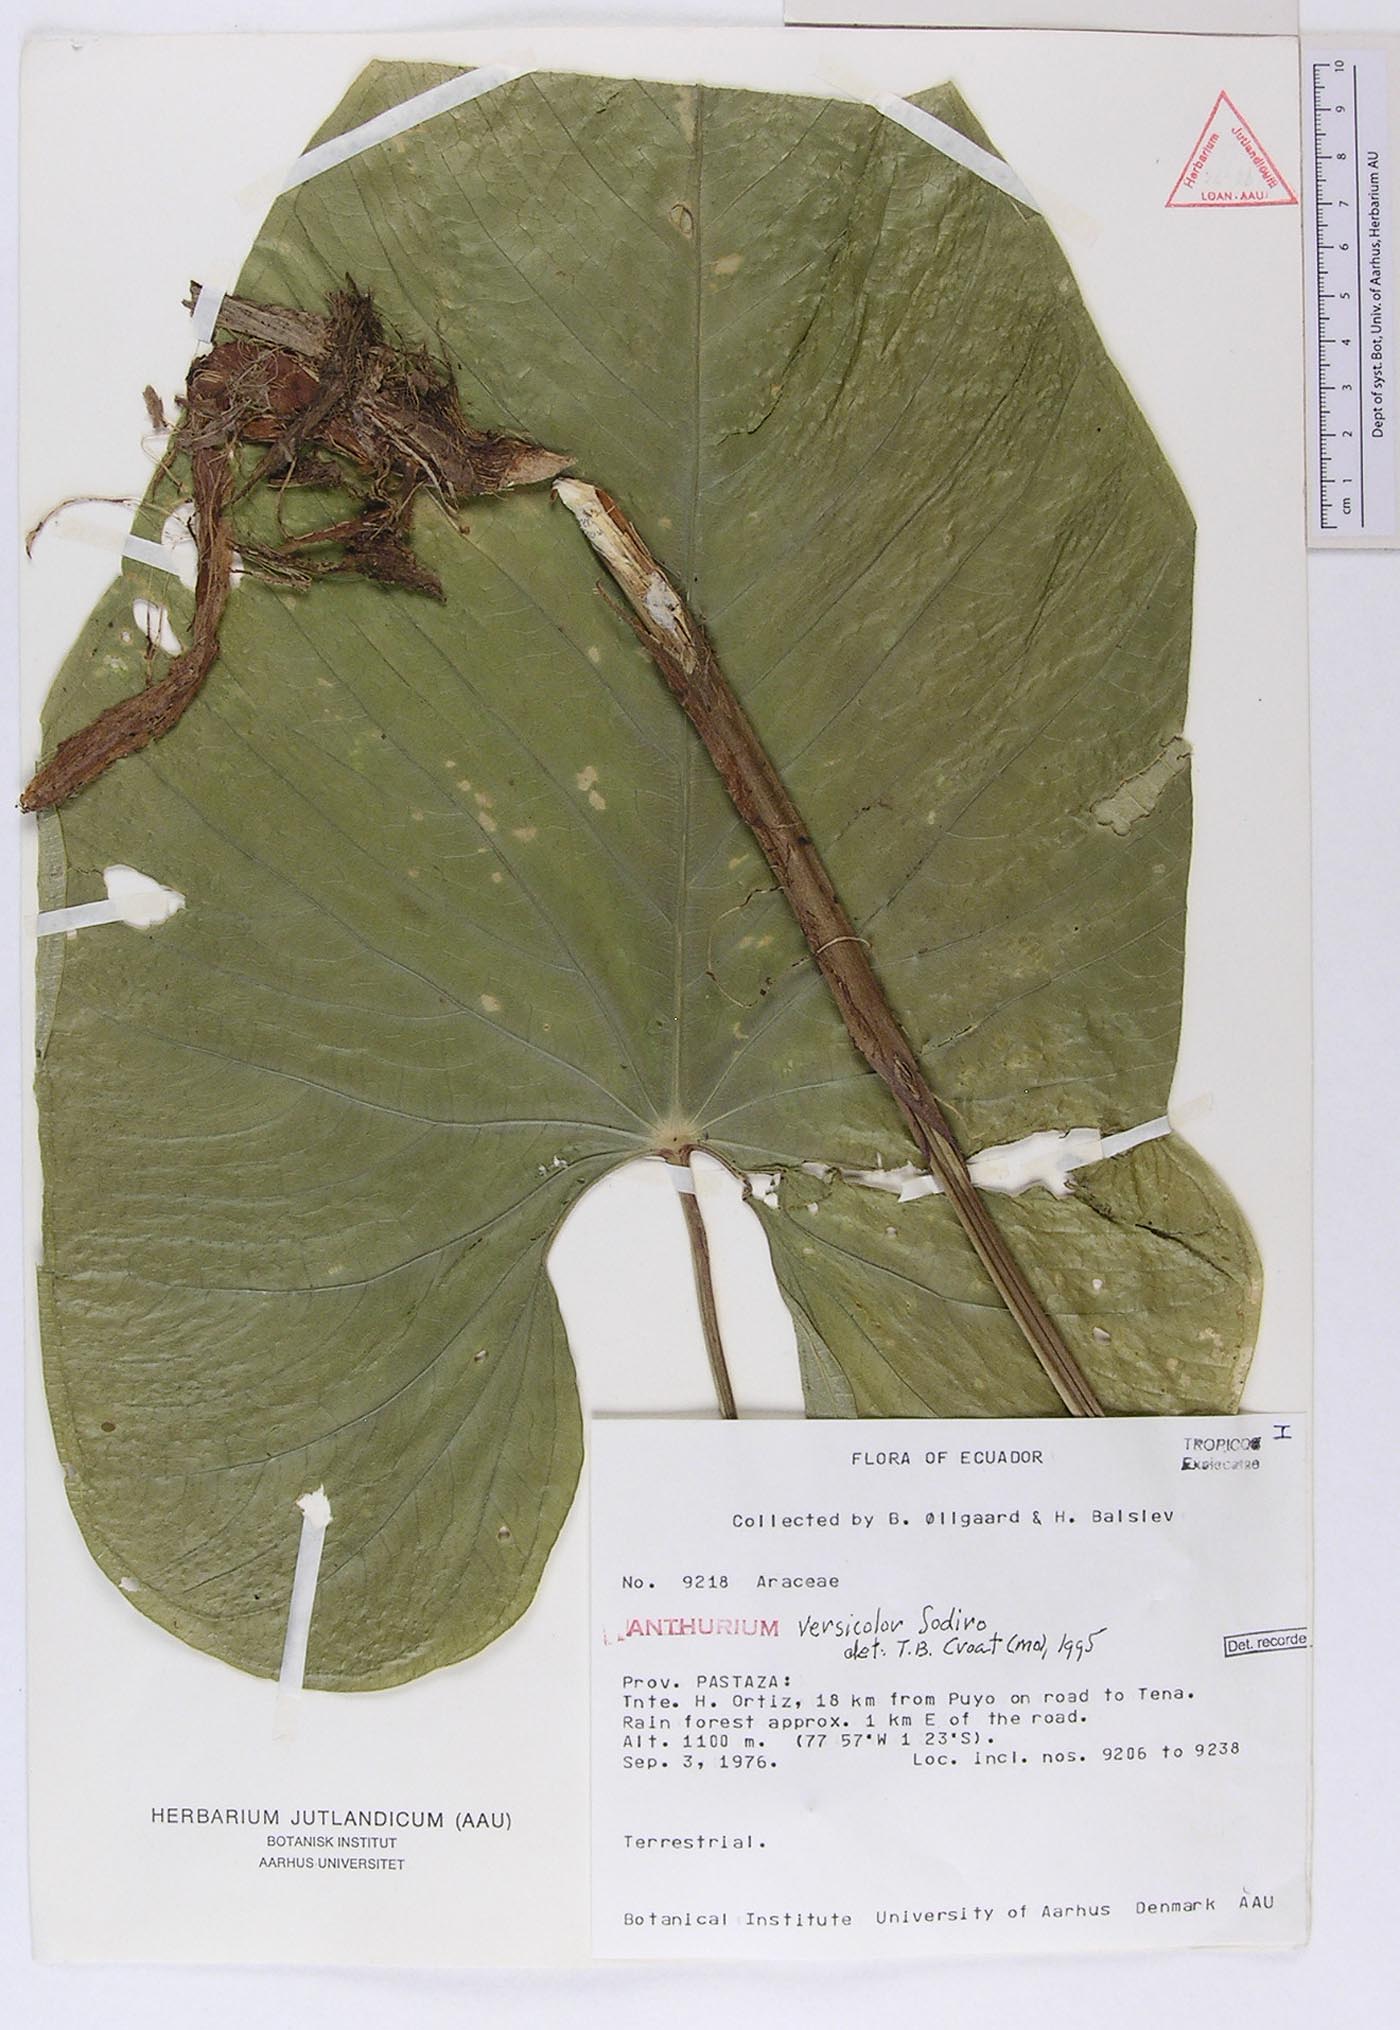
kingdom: Plantae
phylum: Tracheophyta
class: Liliopsida
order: Alismatales
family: Araceae
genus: Anthurium
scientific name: Anthurium versicolor
